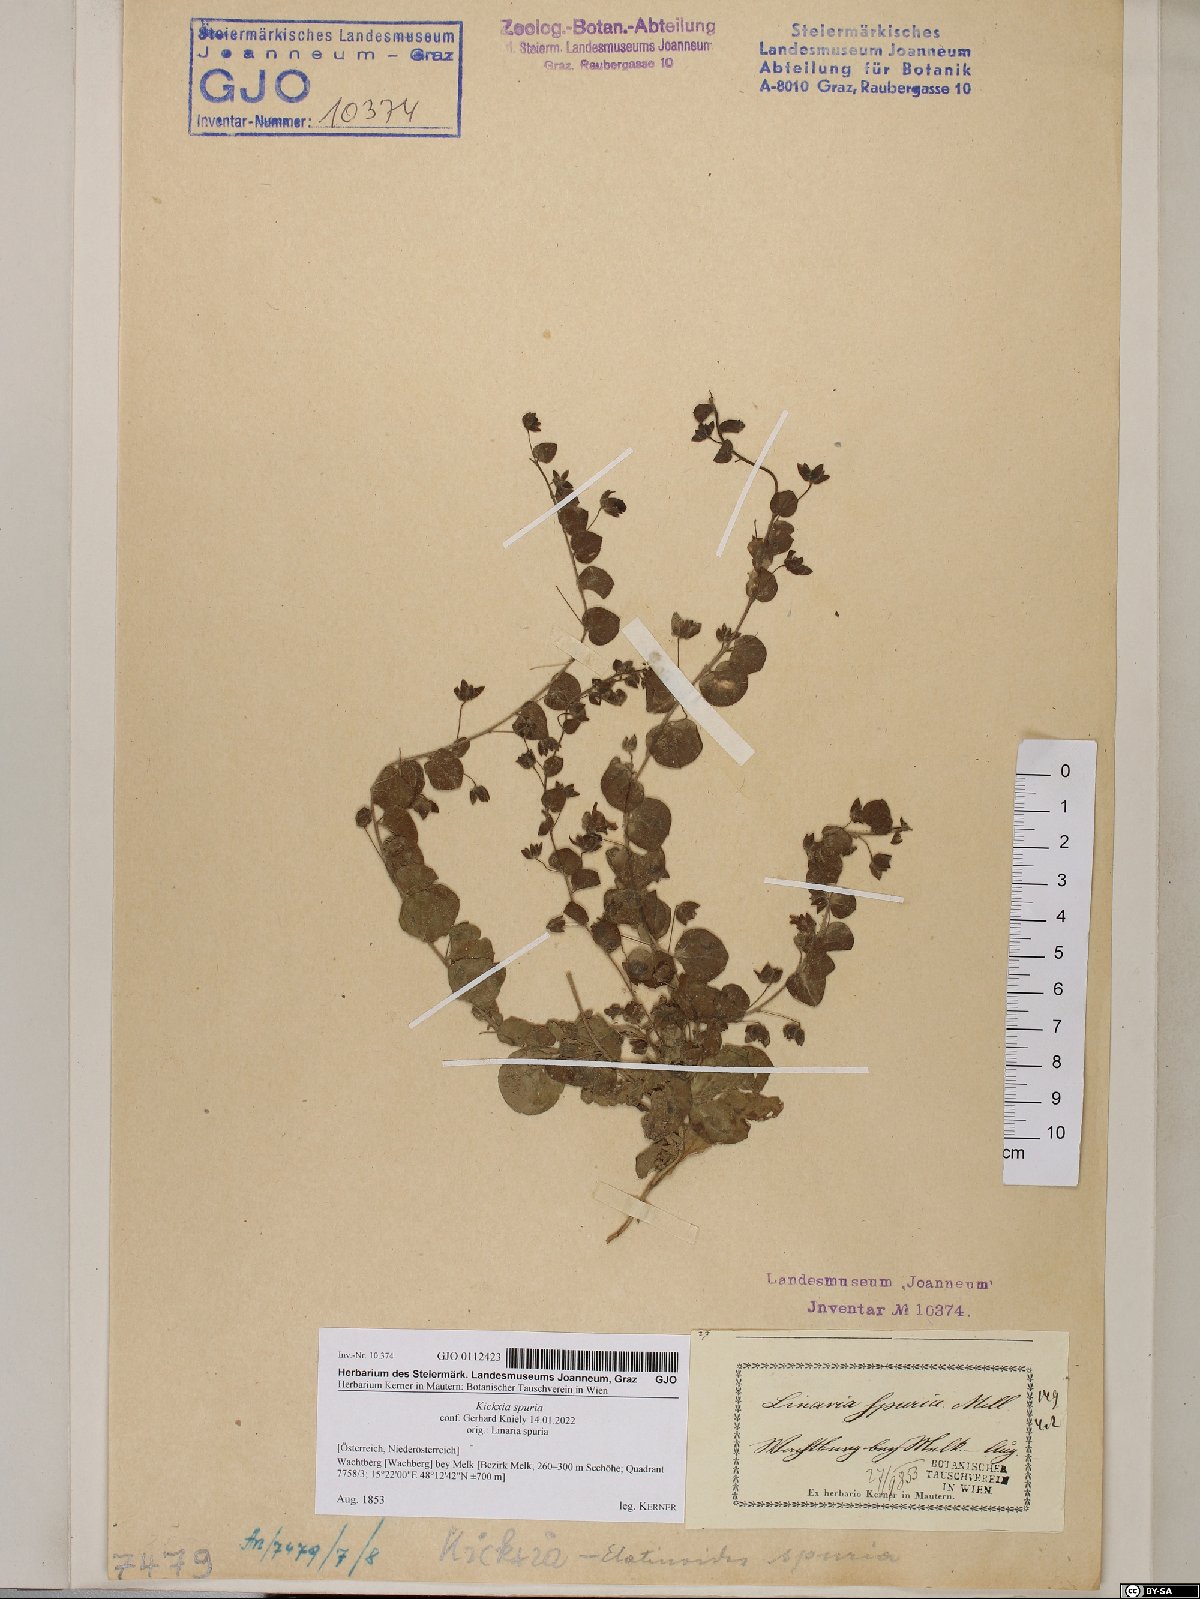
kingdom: Plantae
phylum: Tracheophyta
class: Magnoliopsida
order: Lamiales
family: Plantaginaceae
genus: Kickxia
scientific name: Kickxia spuria
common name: Round-leaved fluellen
